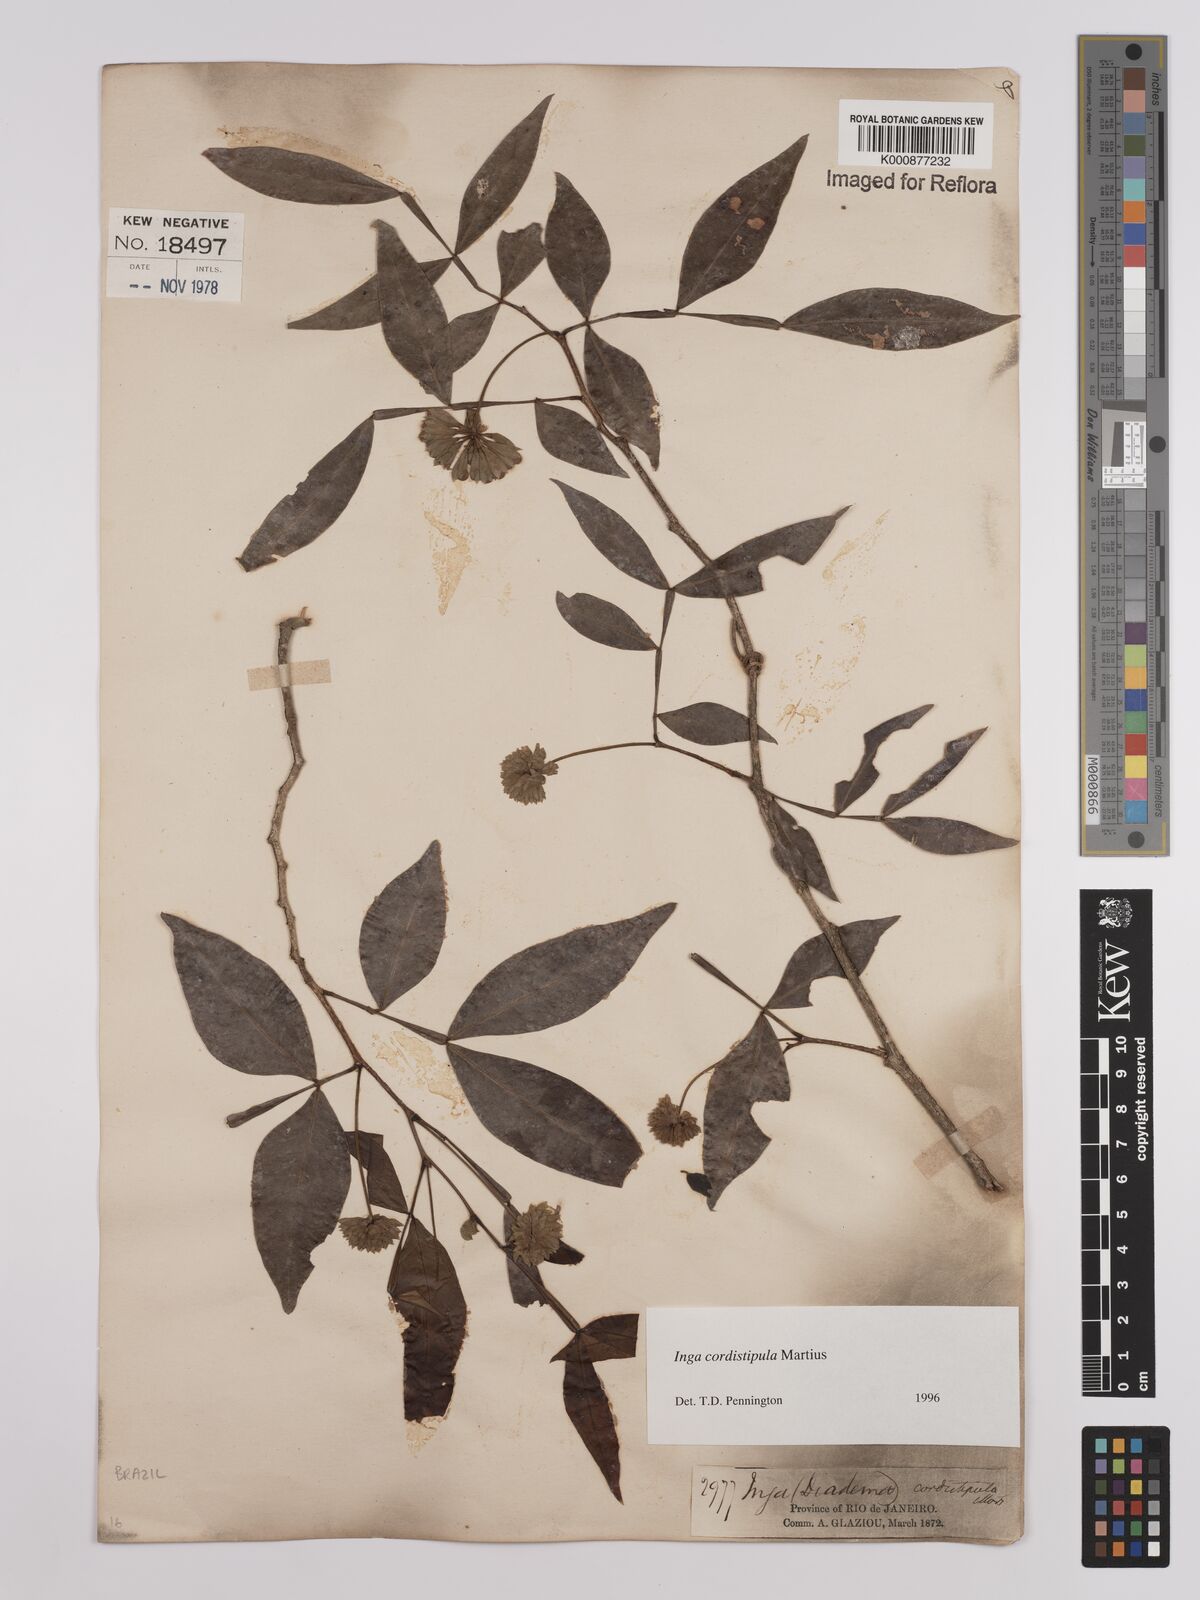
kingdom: Plantae
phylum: Tracheophyta
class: Magnoliopsida
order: Fabales
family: Fabaceae
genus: Inga
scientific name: Inga cordistipula
